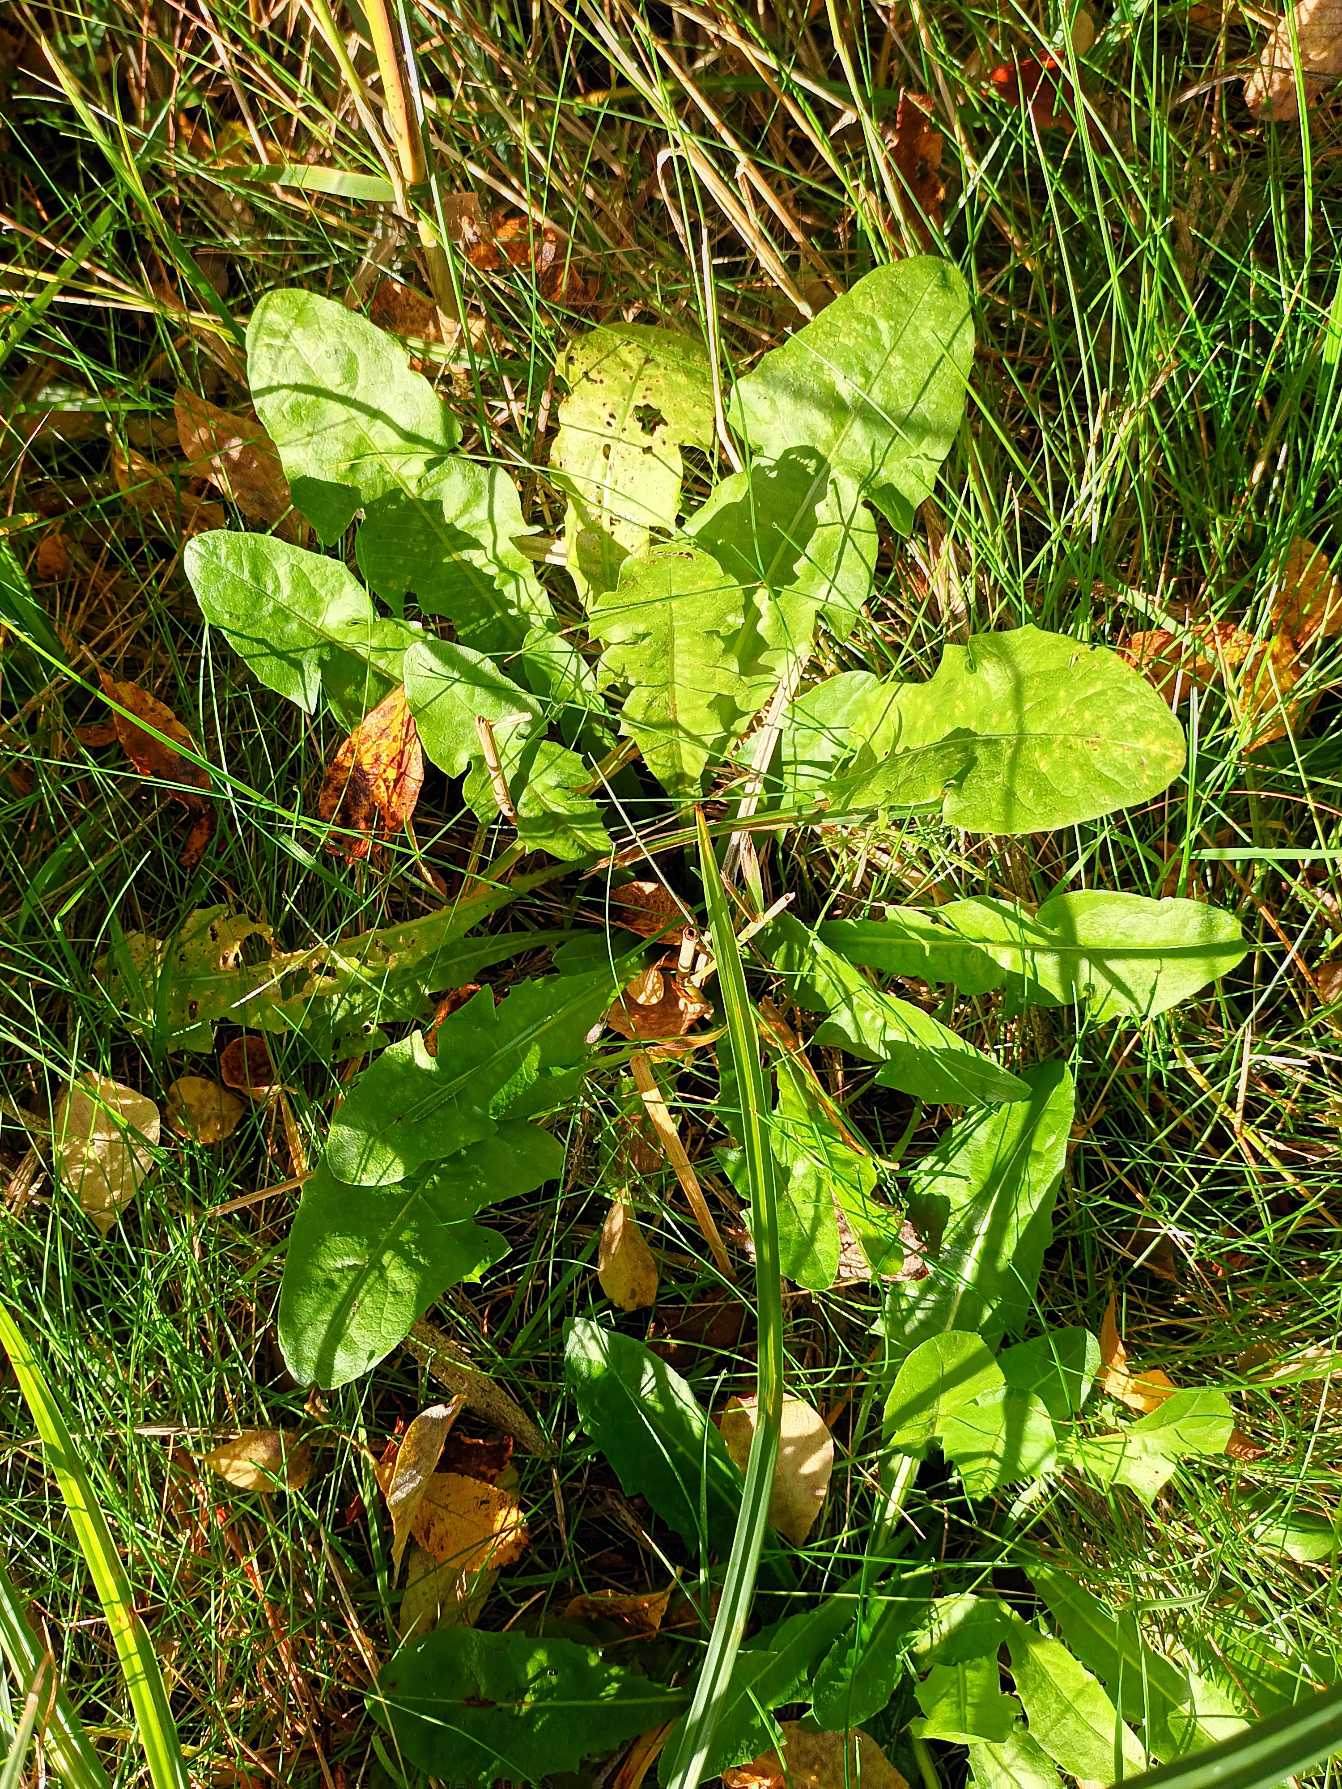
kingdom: Plantae
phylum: Tracheophyta
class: Magnoliopsida
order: Asterales
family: Asteraceae
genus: Taraxacum
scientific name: Taraxacum
